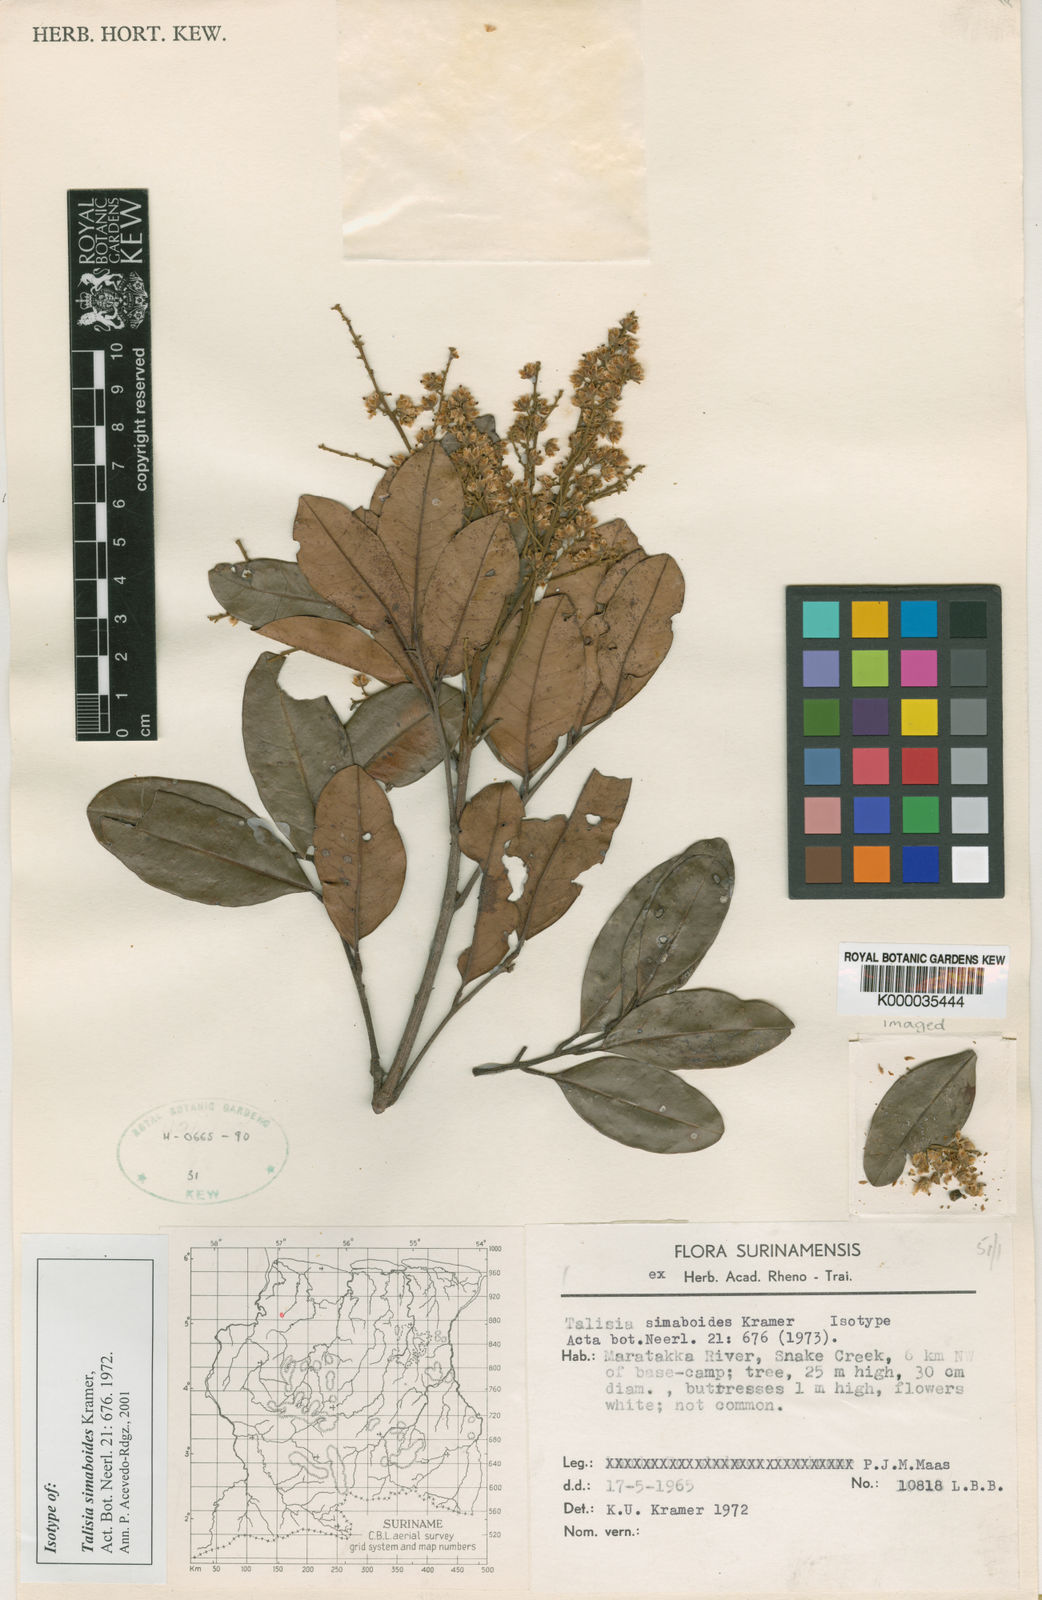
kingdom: Plantae
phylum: Tracheophyta
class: Magnoliopsida
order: Sapindales
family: Sapindaceae
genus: Talisia
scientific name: Talisia simaboides
